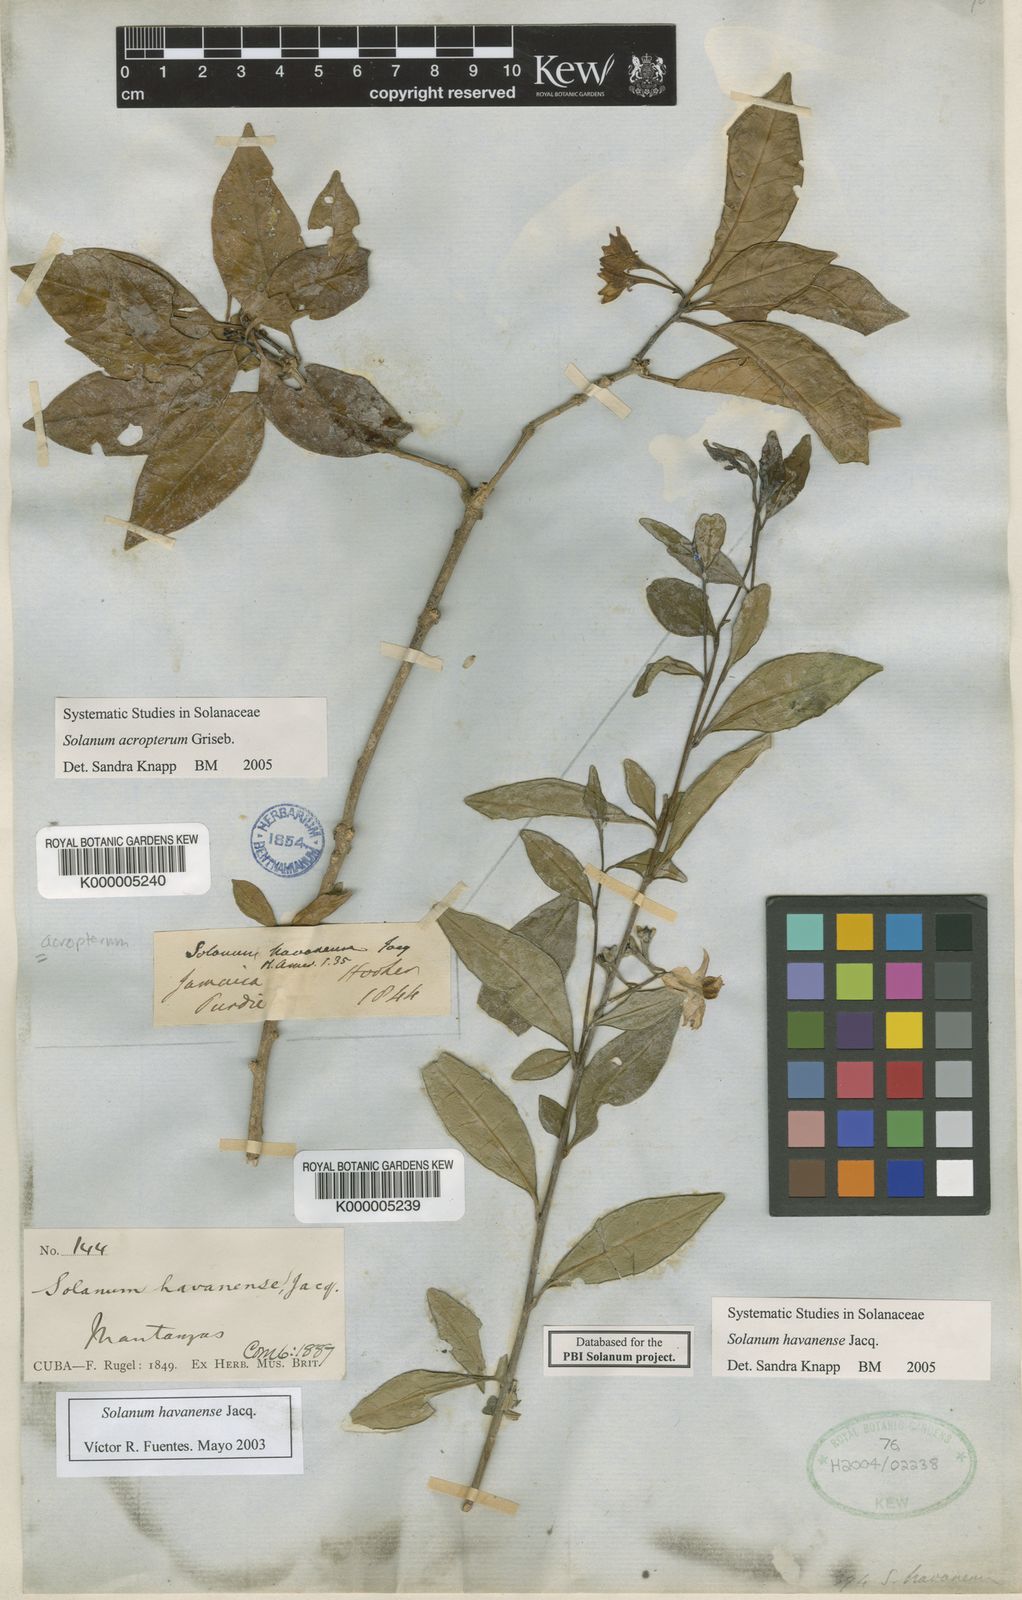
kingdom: Plantae
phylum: Tracheophyta
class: Magnoliopsida
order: Solanales
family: Solanaceae
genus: Solanum
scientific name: Solanum havanense
